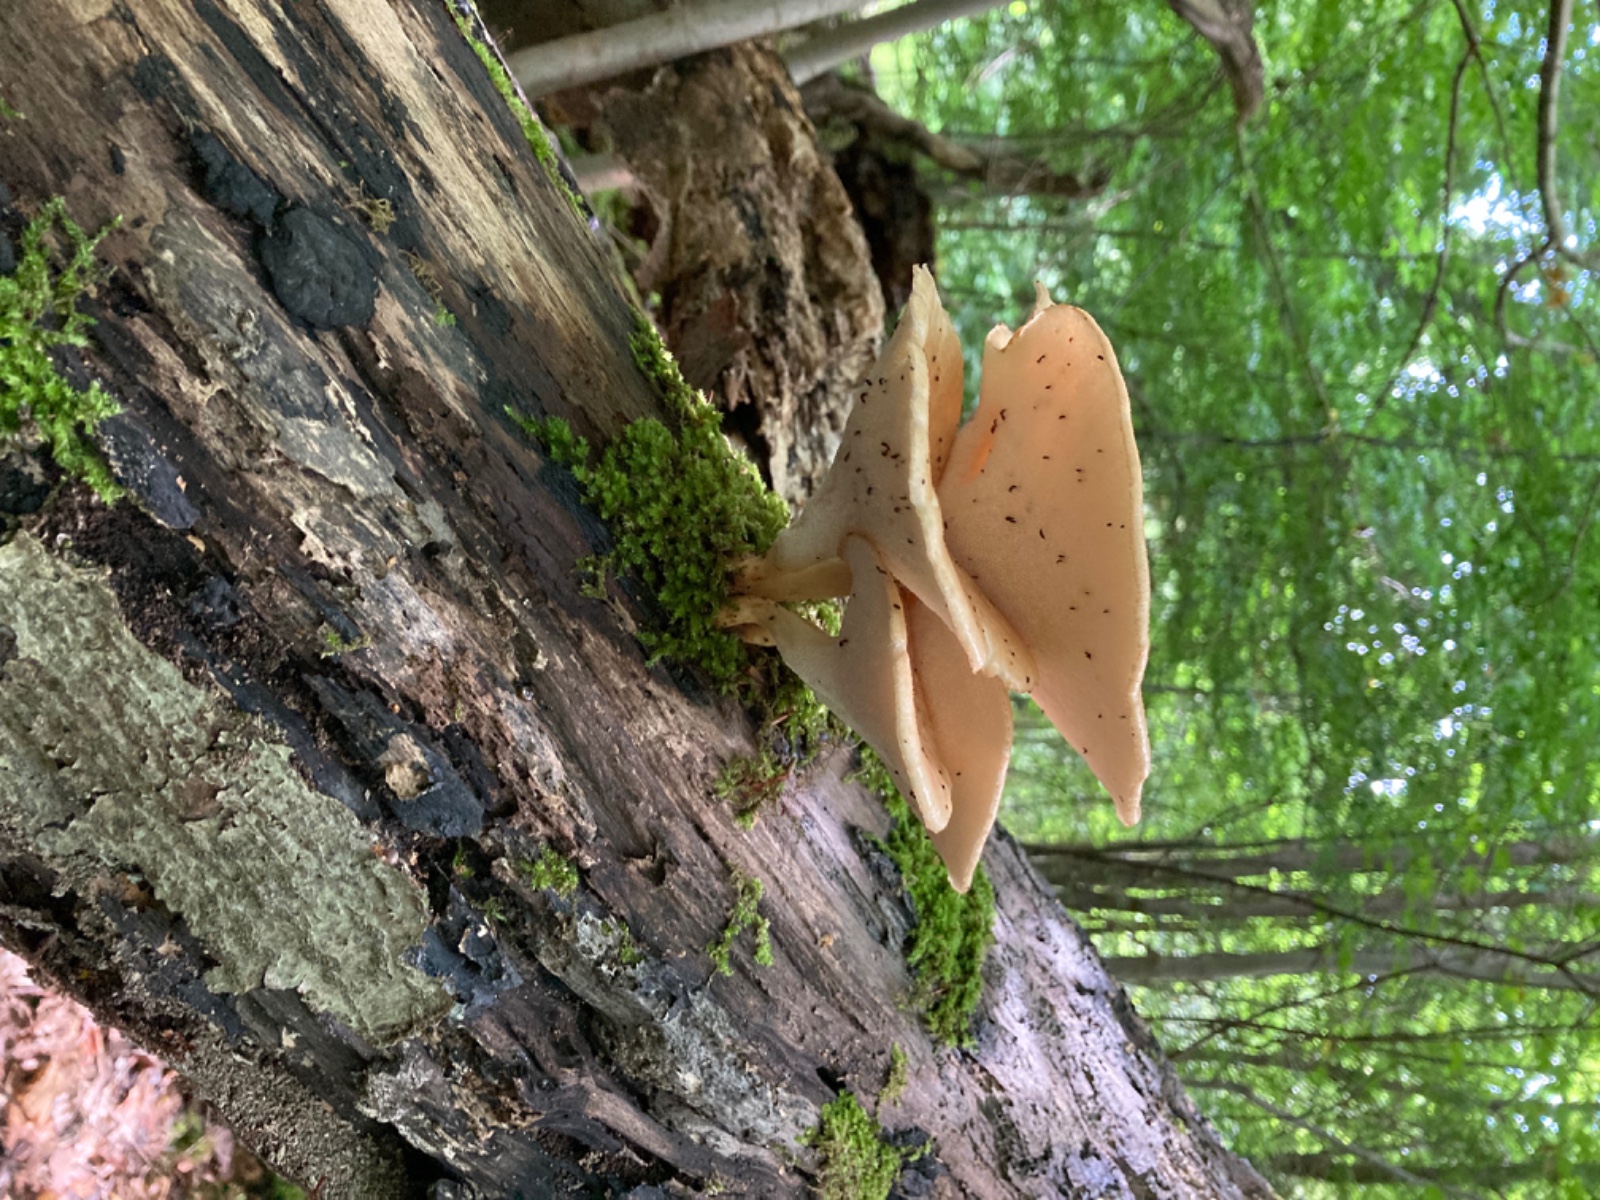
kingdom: Fungi
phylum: Basidiomycota
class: Agaricomycetes
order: Polyporales
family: Polyporaceae
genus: Polyporus
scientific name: Polyporus tuberaster
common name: knoldet stilkporesvamp
